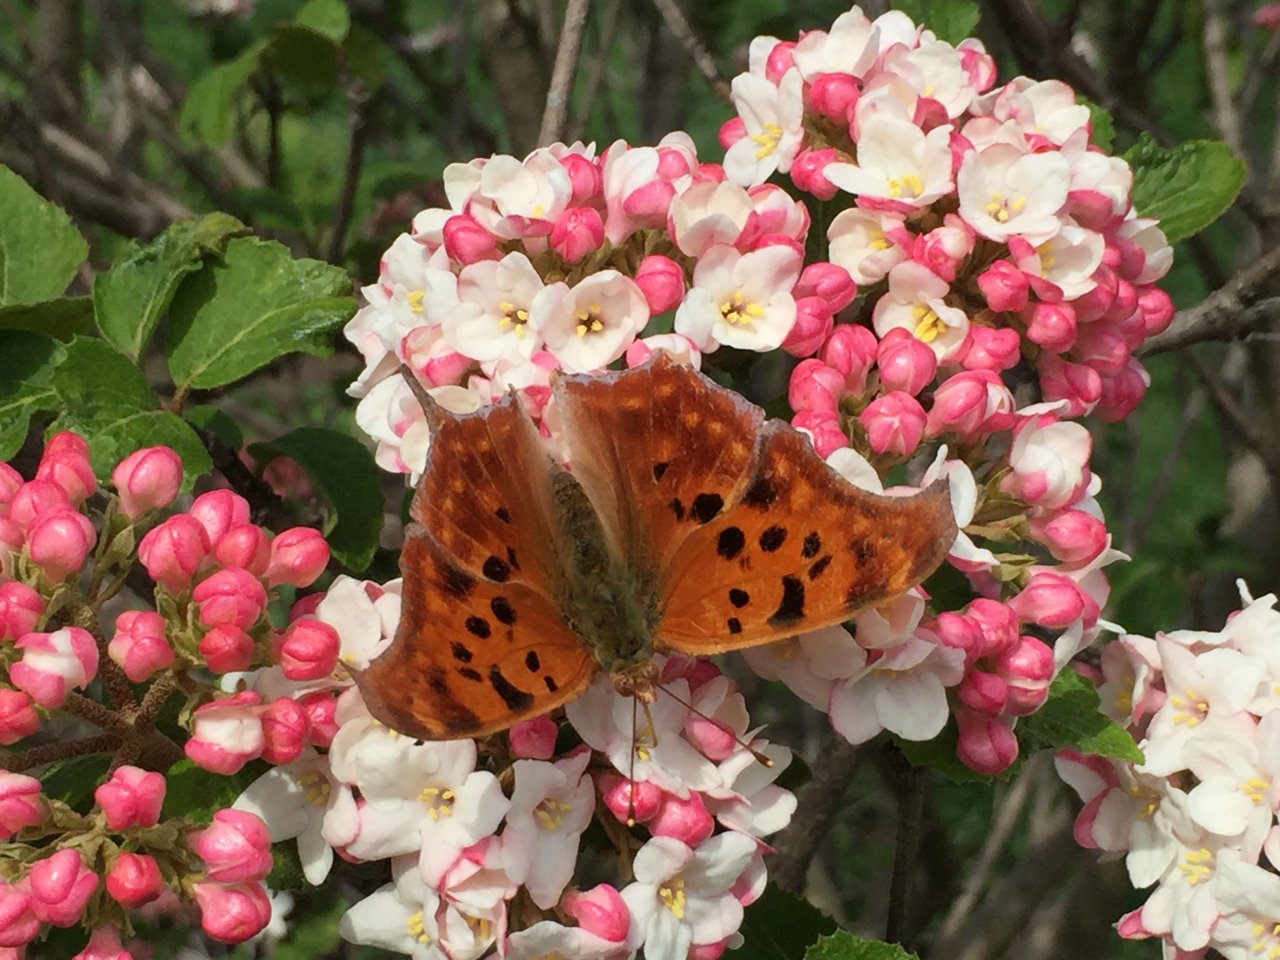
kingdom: Animalia
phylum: Arthropoda
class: Insecta
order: Lepidoptera
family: Nymphalidae
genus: Polygonia
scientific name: Polygonia interrogationis
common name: Question Mark
